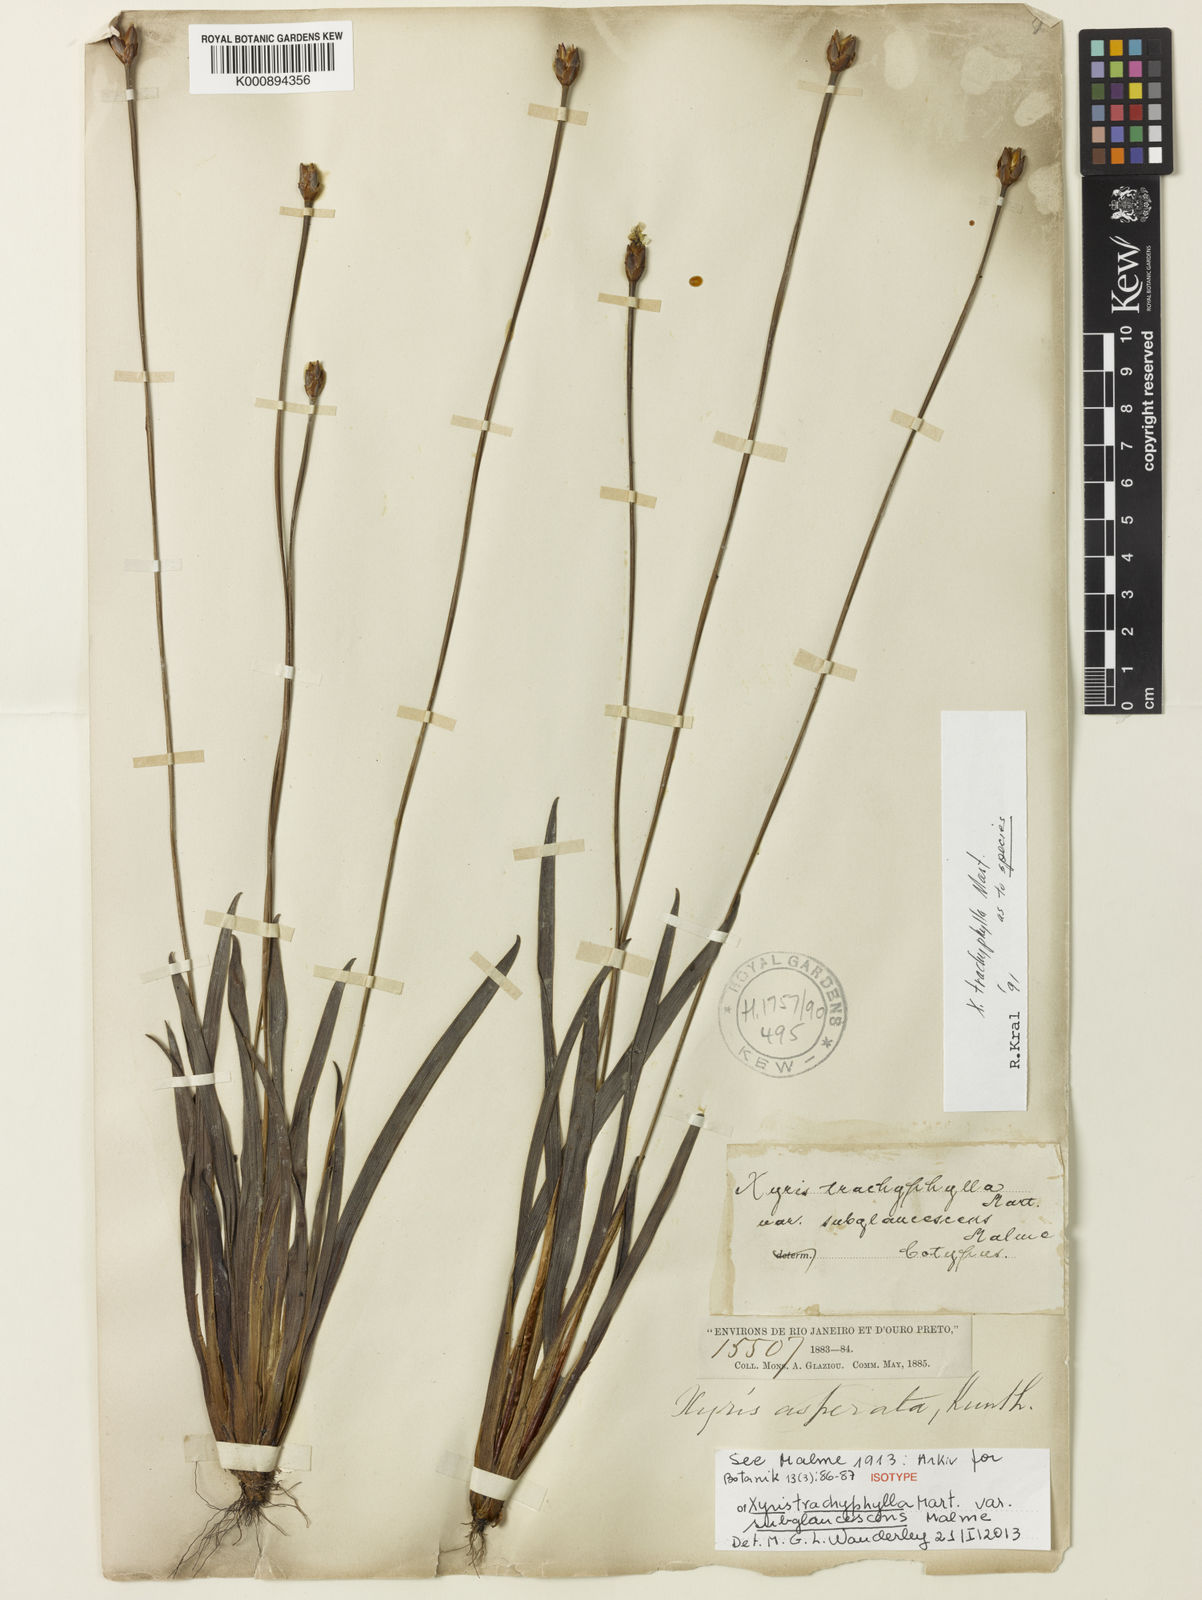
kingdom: Plantae
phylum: Tracheophyta
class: Liliopsida
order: Poales
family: Xyridaceae
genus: Xyris
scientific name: Xyris trachyphylla
